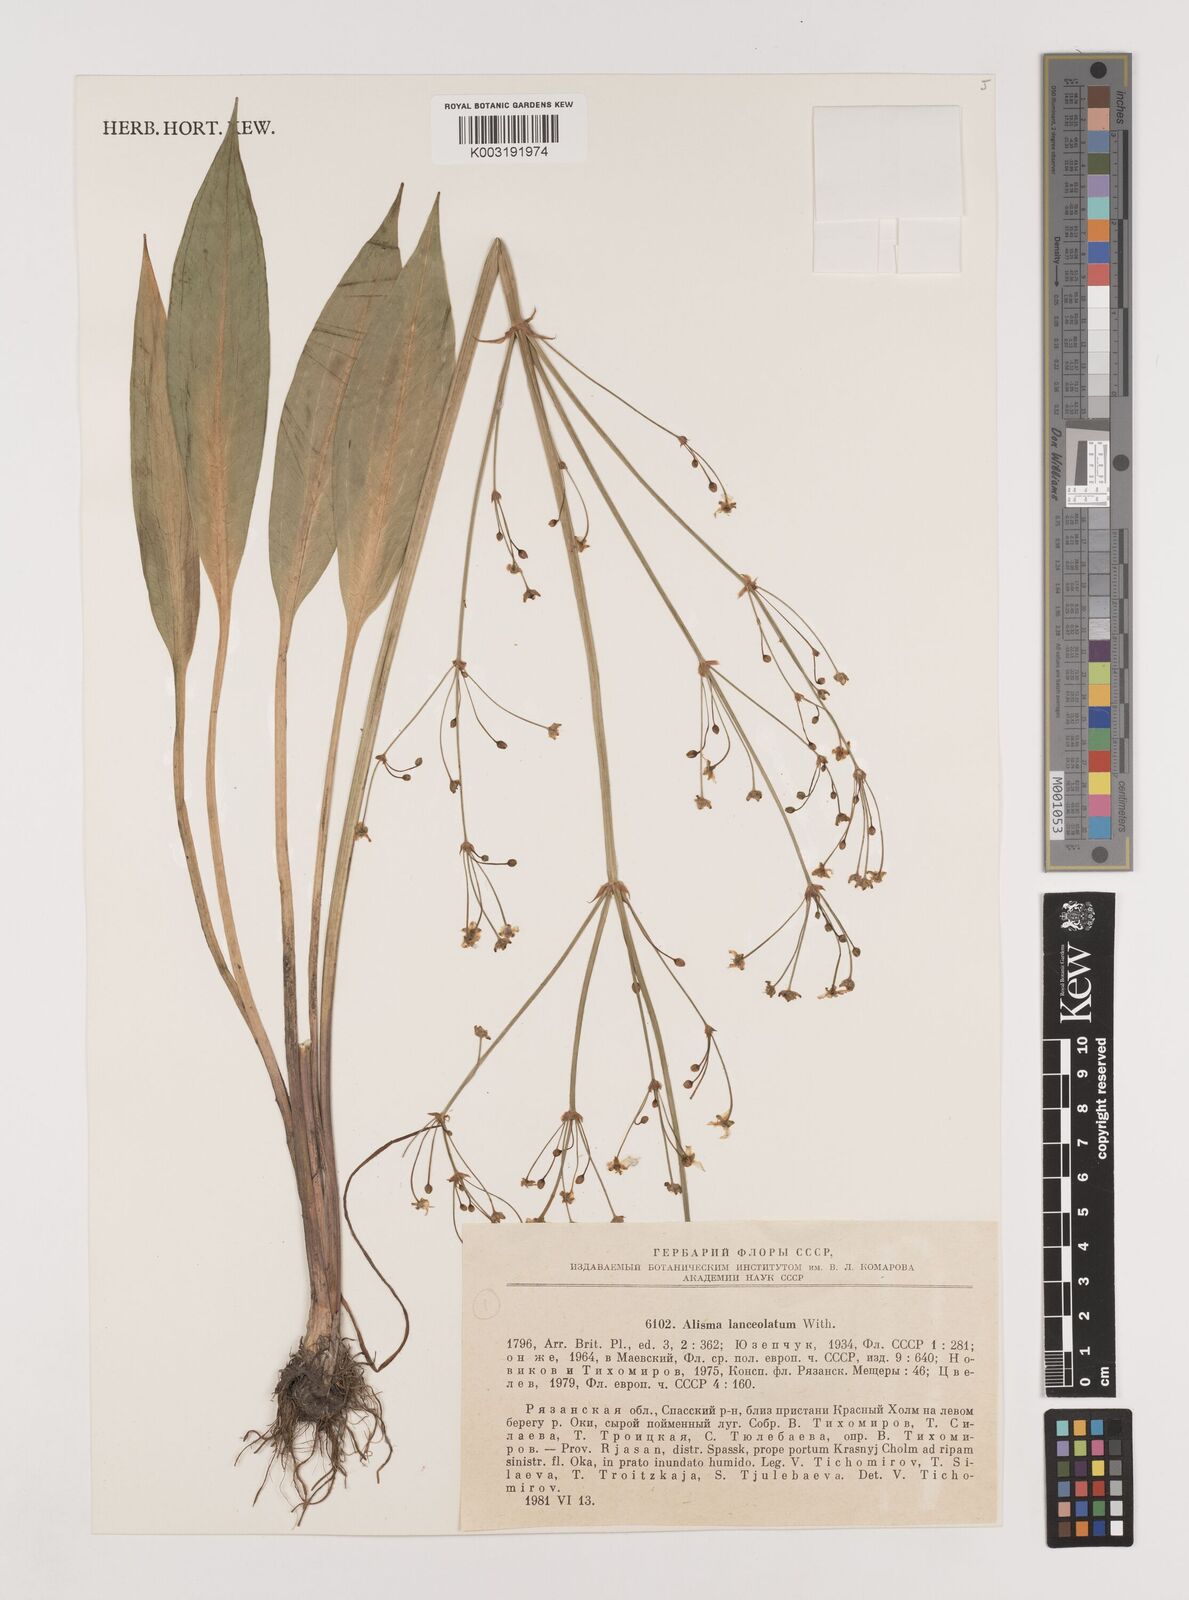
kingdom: Plantae
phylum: Tracheophyta
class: Liliopsida
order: Alismatales
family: Alismataceae
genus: Alisma
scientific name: Alisma lanceolatum
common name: Narrow-leaved water-plantain
